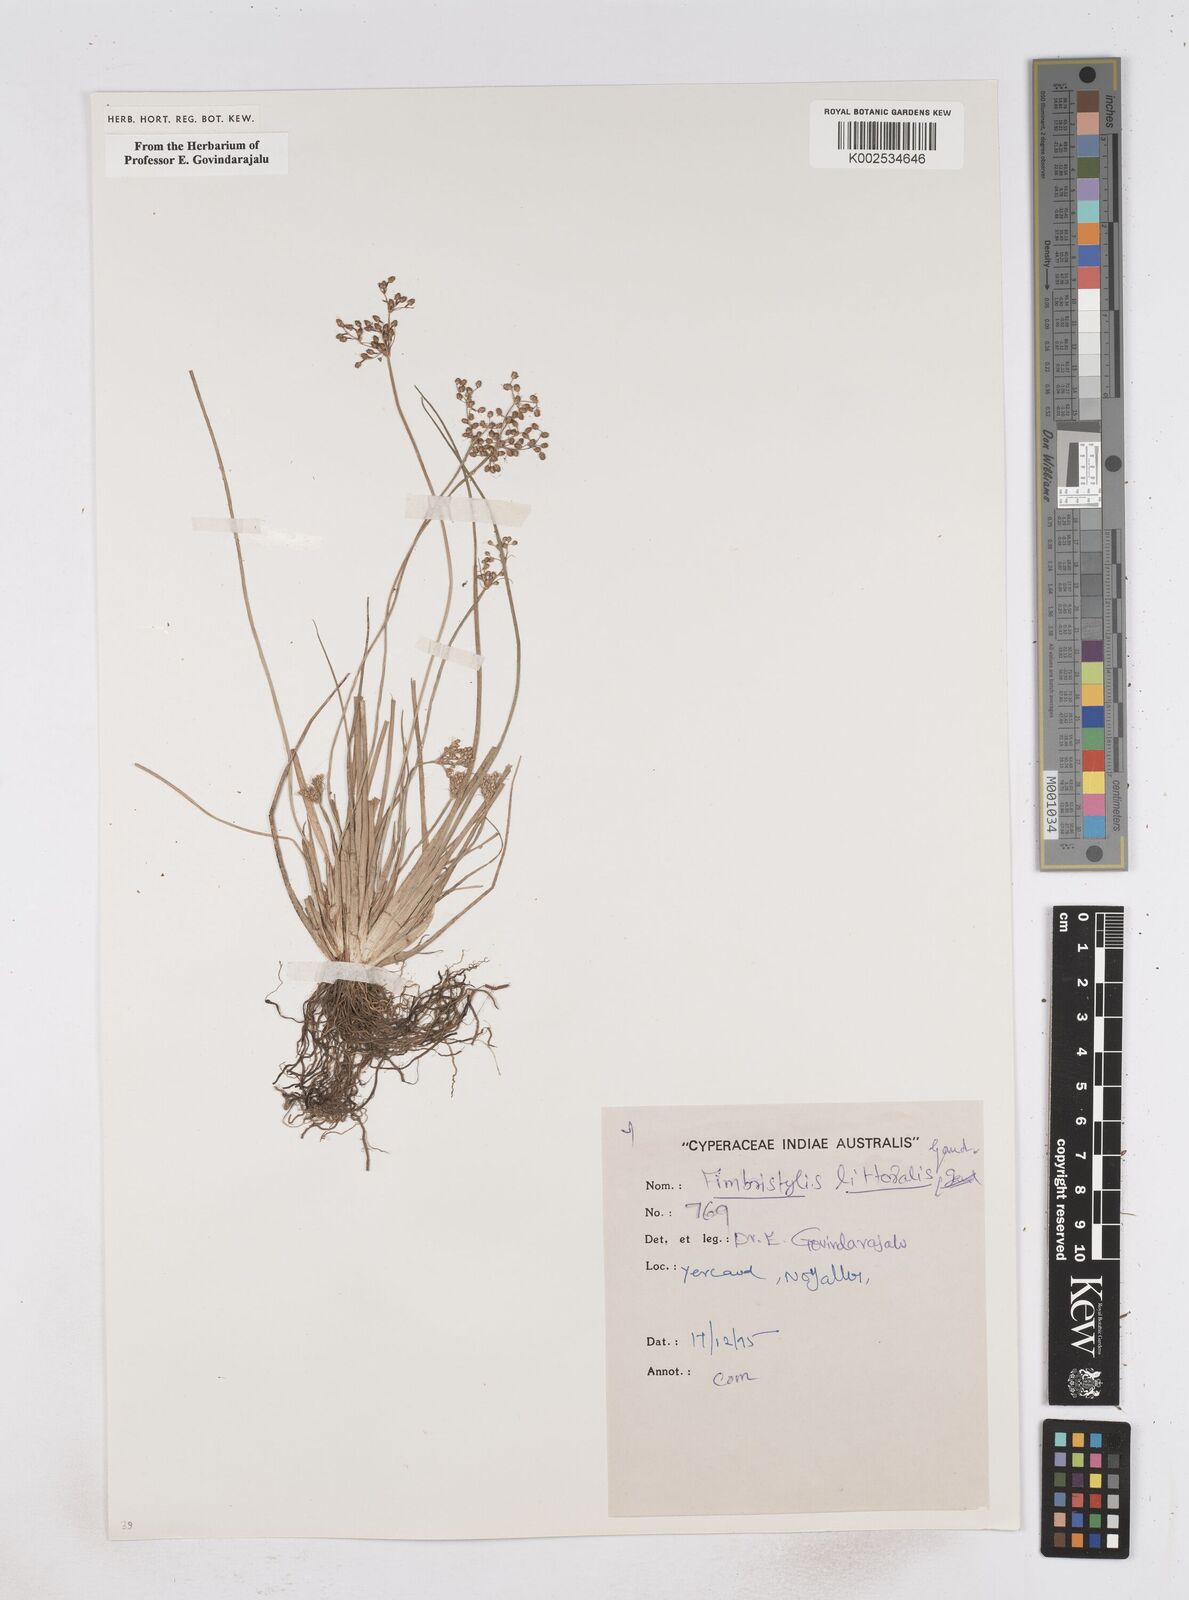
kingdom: Plantae
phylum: Tracheophyta
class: Liliopsida
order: Poales
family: Cyperaceae
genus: Fimbristylis
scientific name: Fimbristylis littoralis
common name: Fimbry
